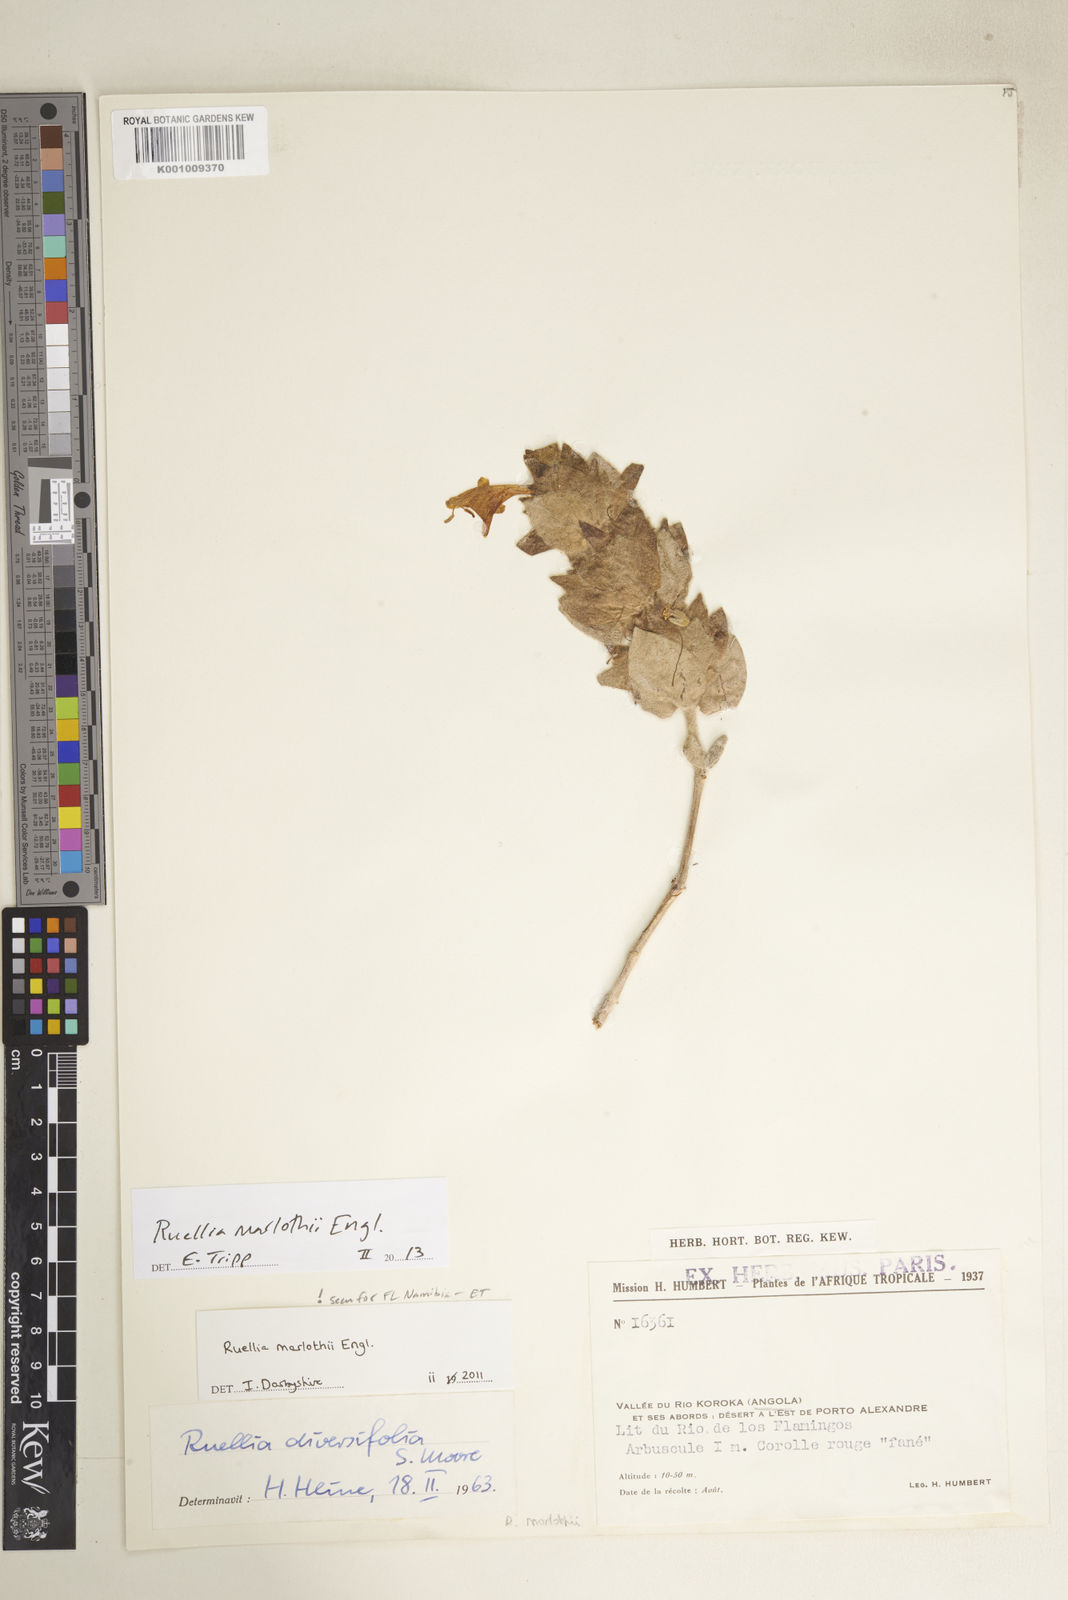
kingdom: Plantae
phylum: Tracheophyta
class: Magnoliopsida
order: Lamiales
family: Acanthaceae
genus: Dinteracanthus
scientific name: Dinteracanthus diversifolius
